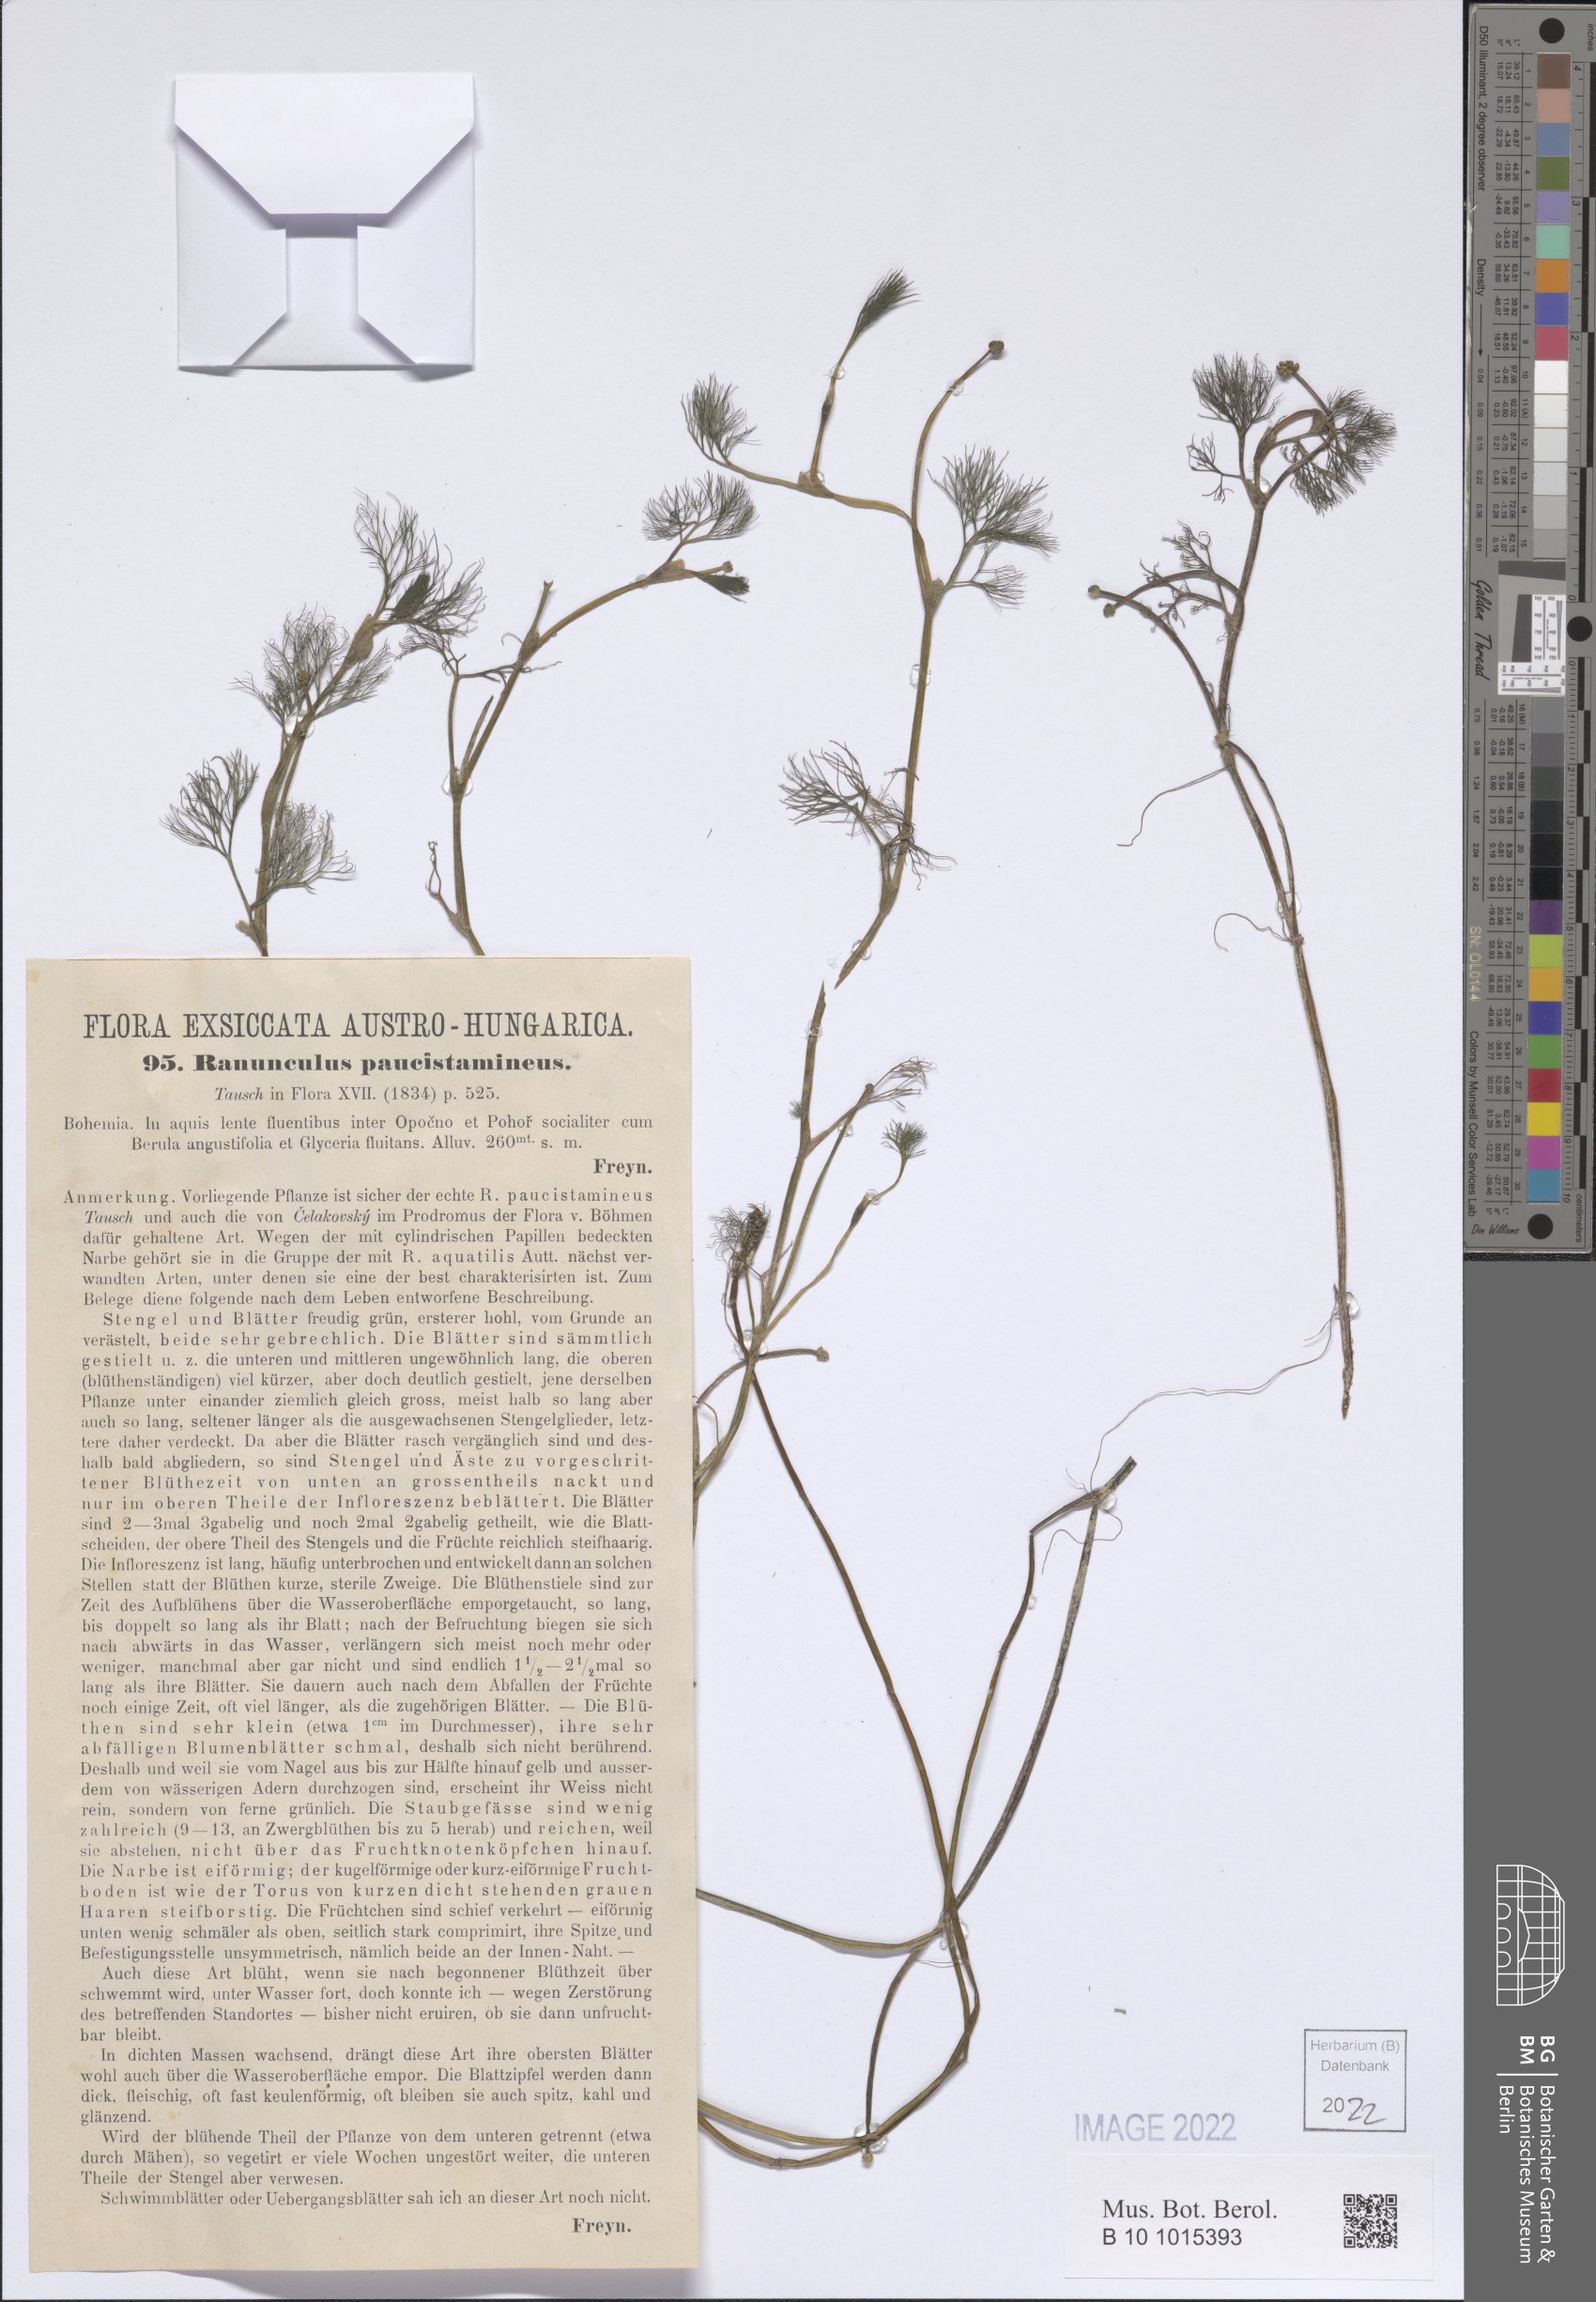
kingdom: Plantae
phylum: Tracheophyta
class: Magnoliopsida
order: Ranunculales
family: Ranunculaceae
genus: Ranunculus
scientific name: Ranunculus trichophyllus
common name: Thread-leaved water-crowfoot
